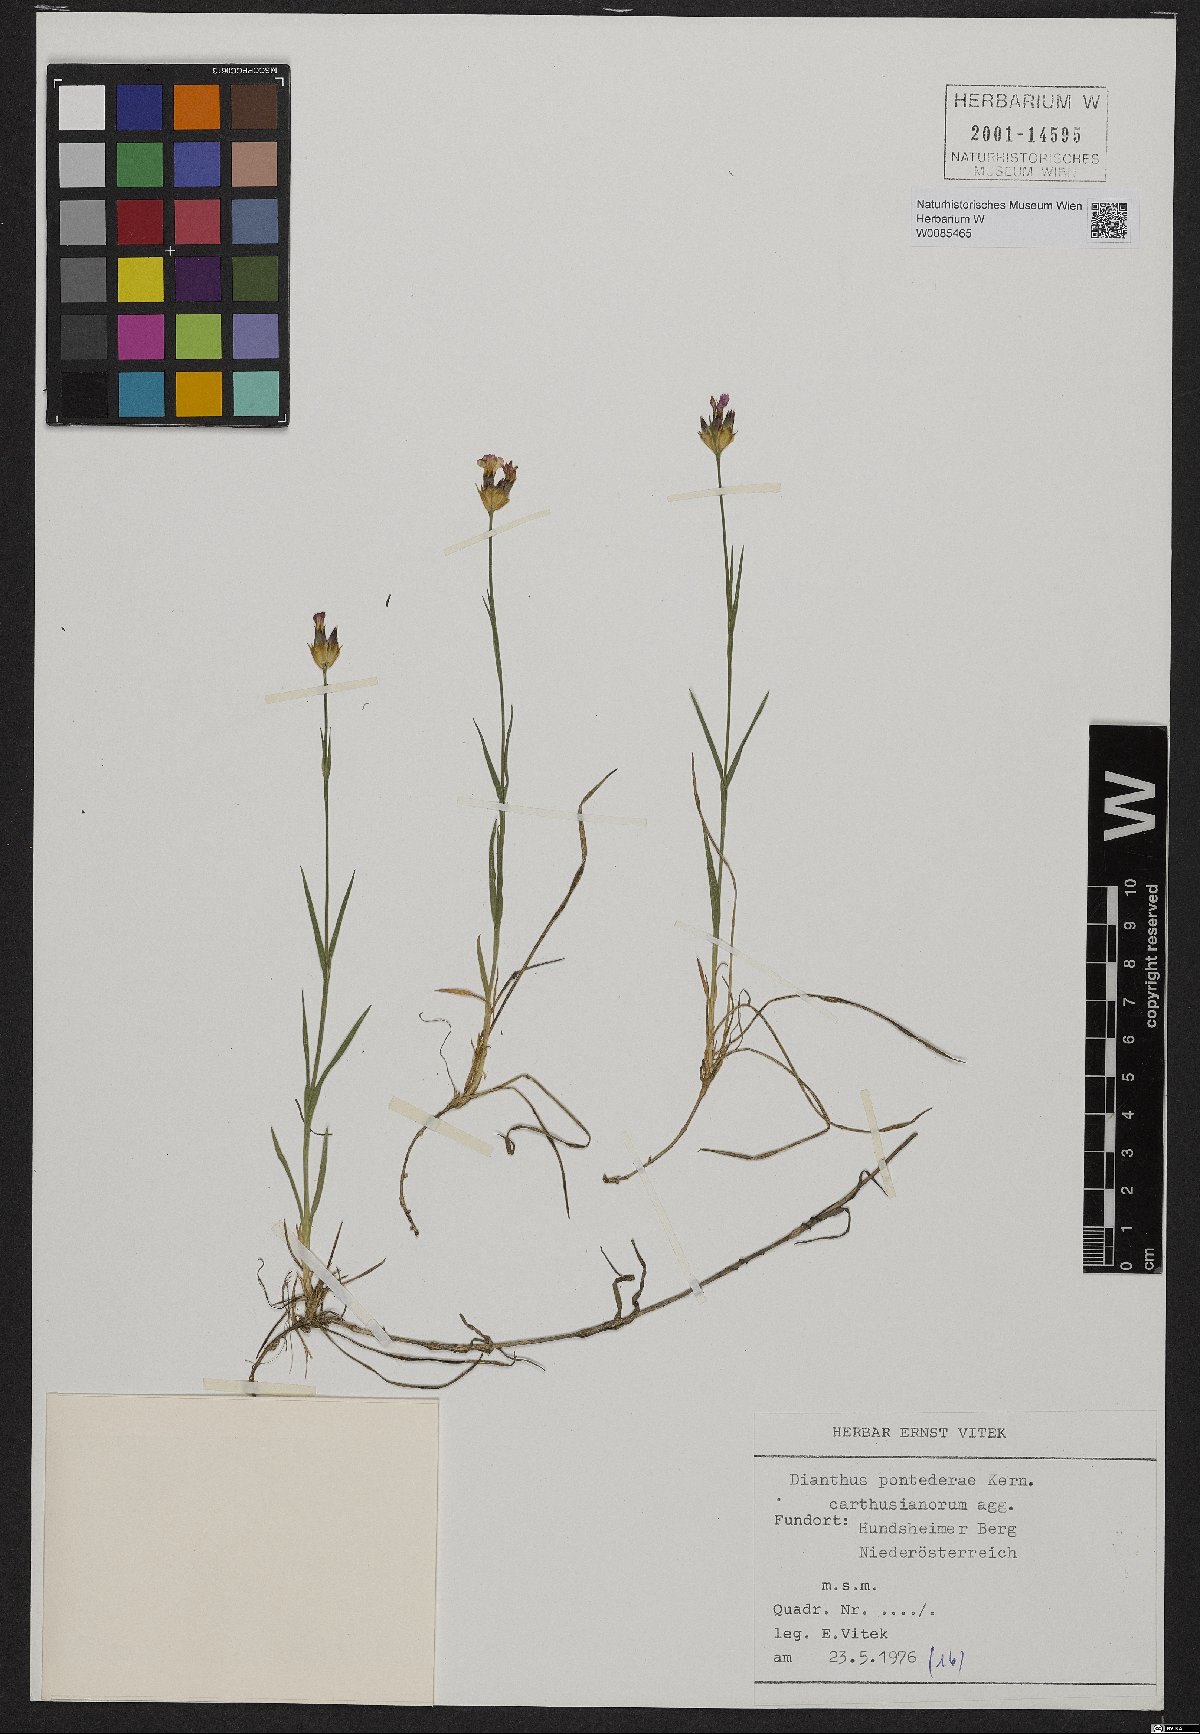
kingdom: Plantae
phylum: Tracheophyta
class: Magnoliopsida
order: Caryophyllales
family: Caryophyllaceae
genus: Dianthus
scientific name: Dianthus pontederae
